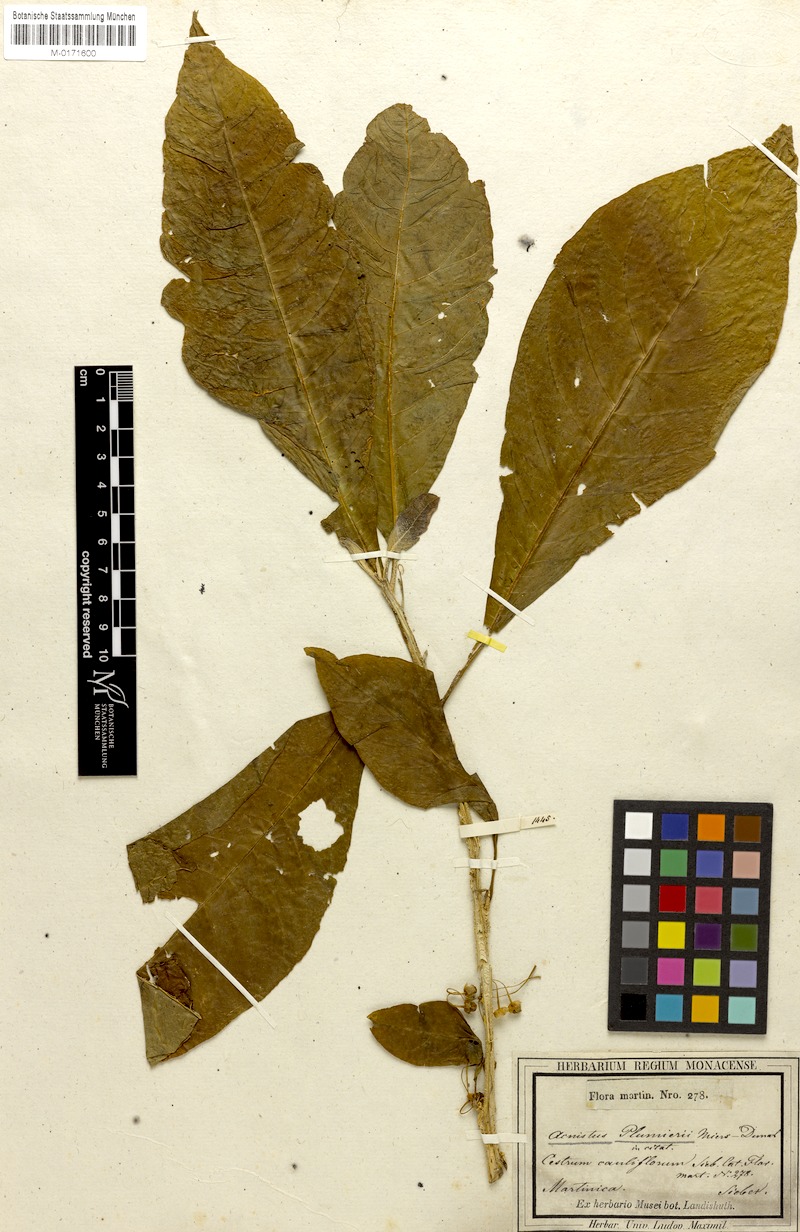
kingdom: Plantae
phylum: Tracheophyta
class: Magnoliopsida
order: Solanales
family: Solanaceae
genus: Iochroma
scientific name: Iochroma arborescens
